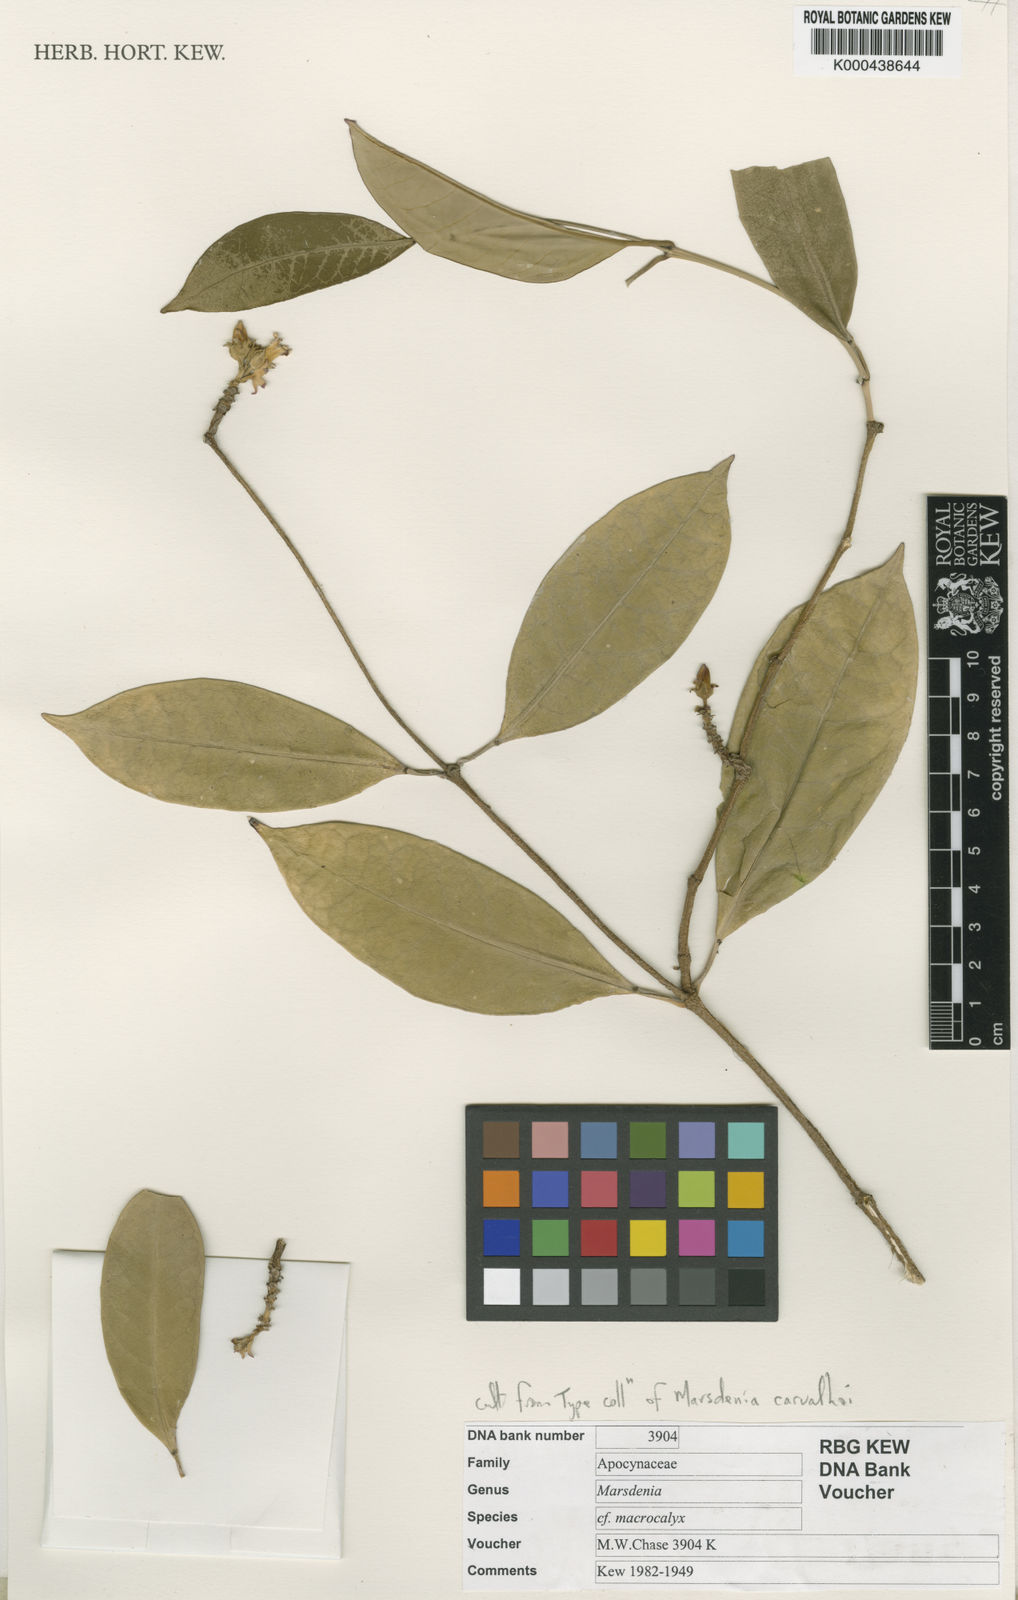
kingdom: Plantae
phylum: Tracheophyta
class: Magnoliopsida
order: Gentianales
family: Apocynaceae
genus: Ruehssia
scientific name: Ruehssia carvalhoi
